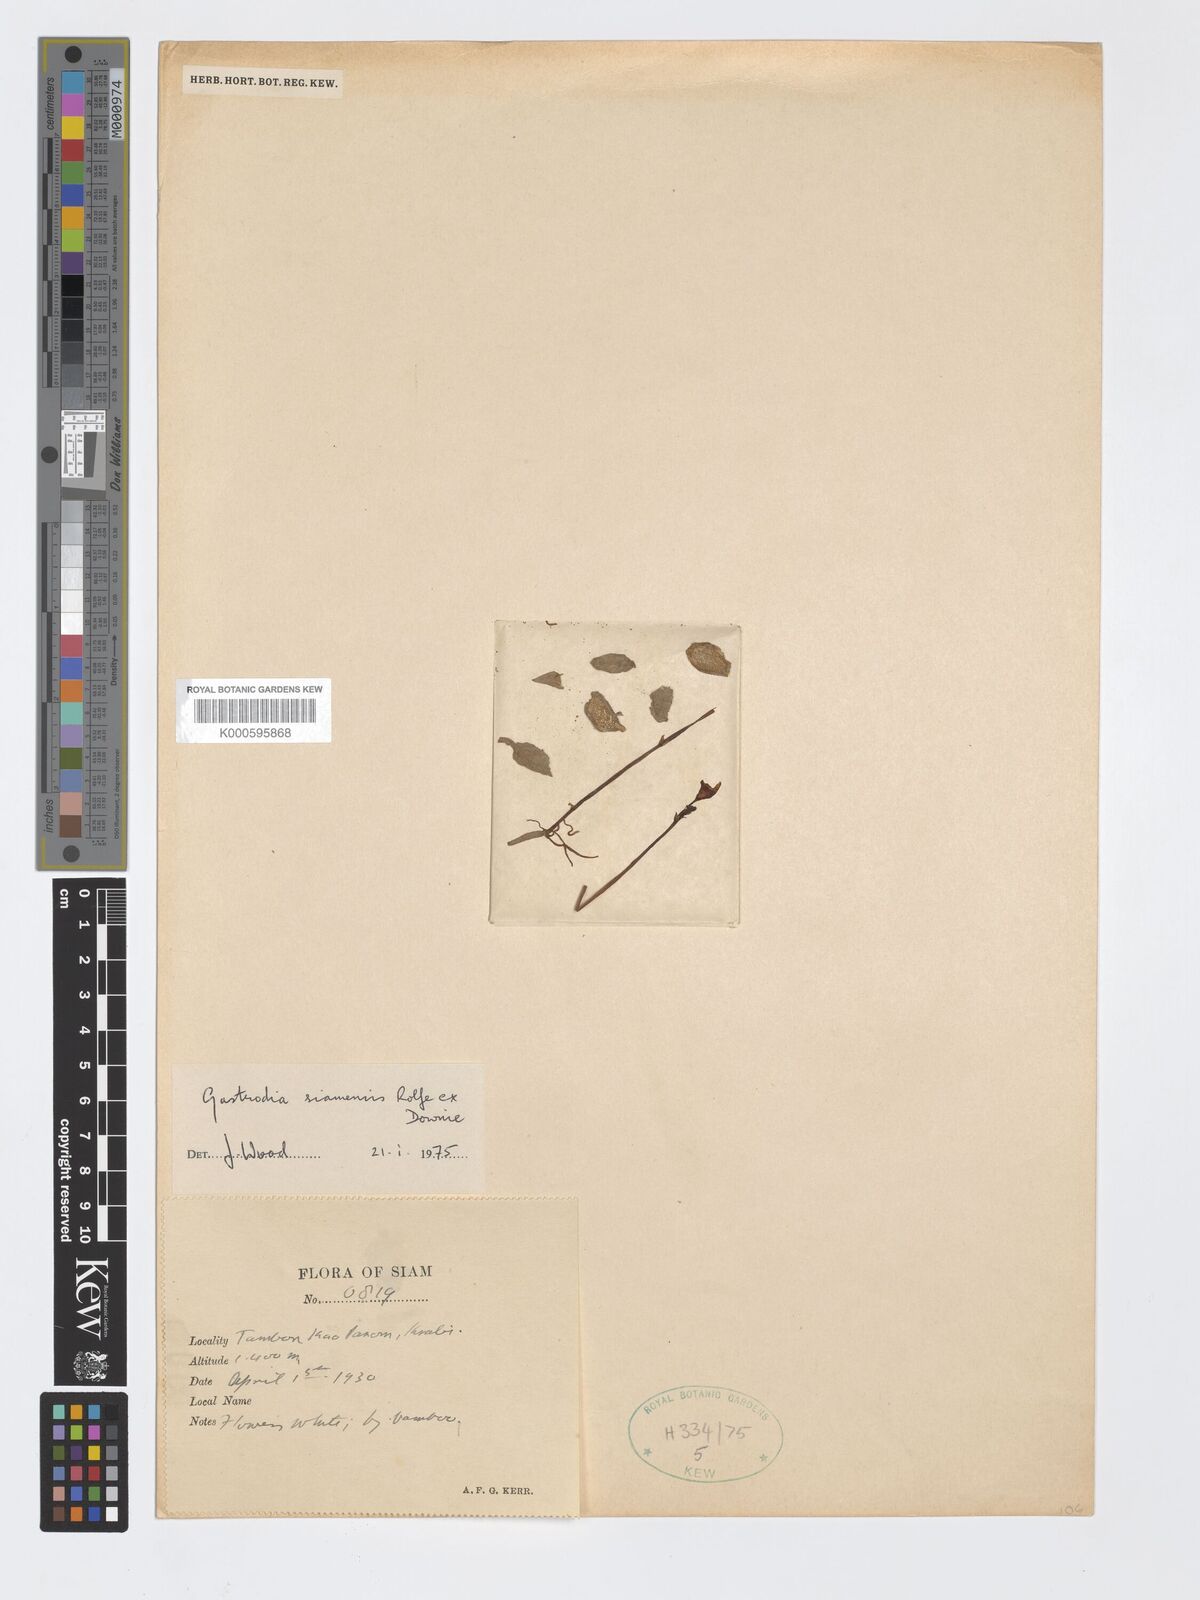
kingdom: Plantae
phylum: Tracheophyta
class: Liliopsida
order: Asparagales
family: Orchidaceae
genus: Gastrodia
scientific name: Gastrodia exilis
